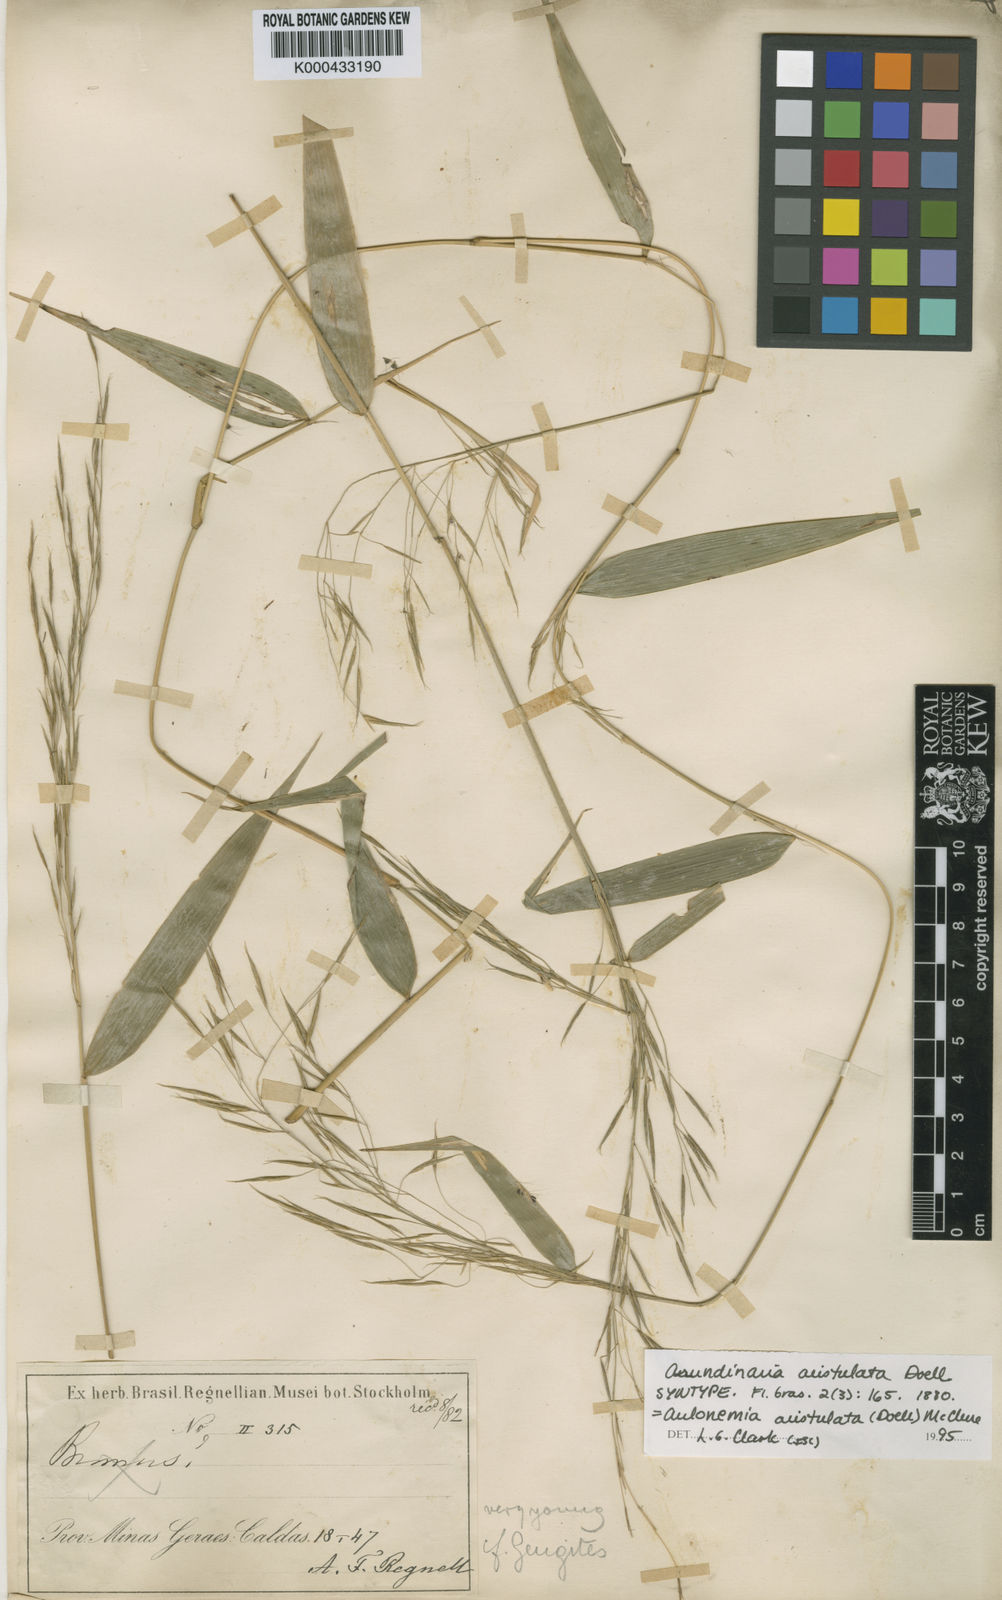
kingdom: Plantae
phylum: Tracheophyta
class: Liliopsida
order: Poales
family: Poaceae
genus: Aulonemia
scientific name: Aulonemia aristulata
